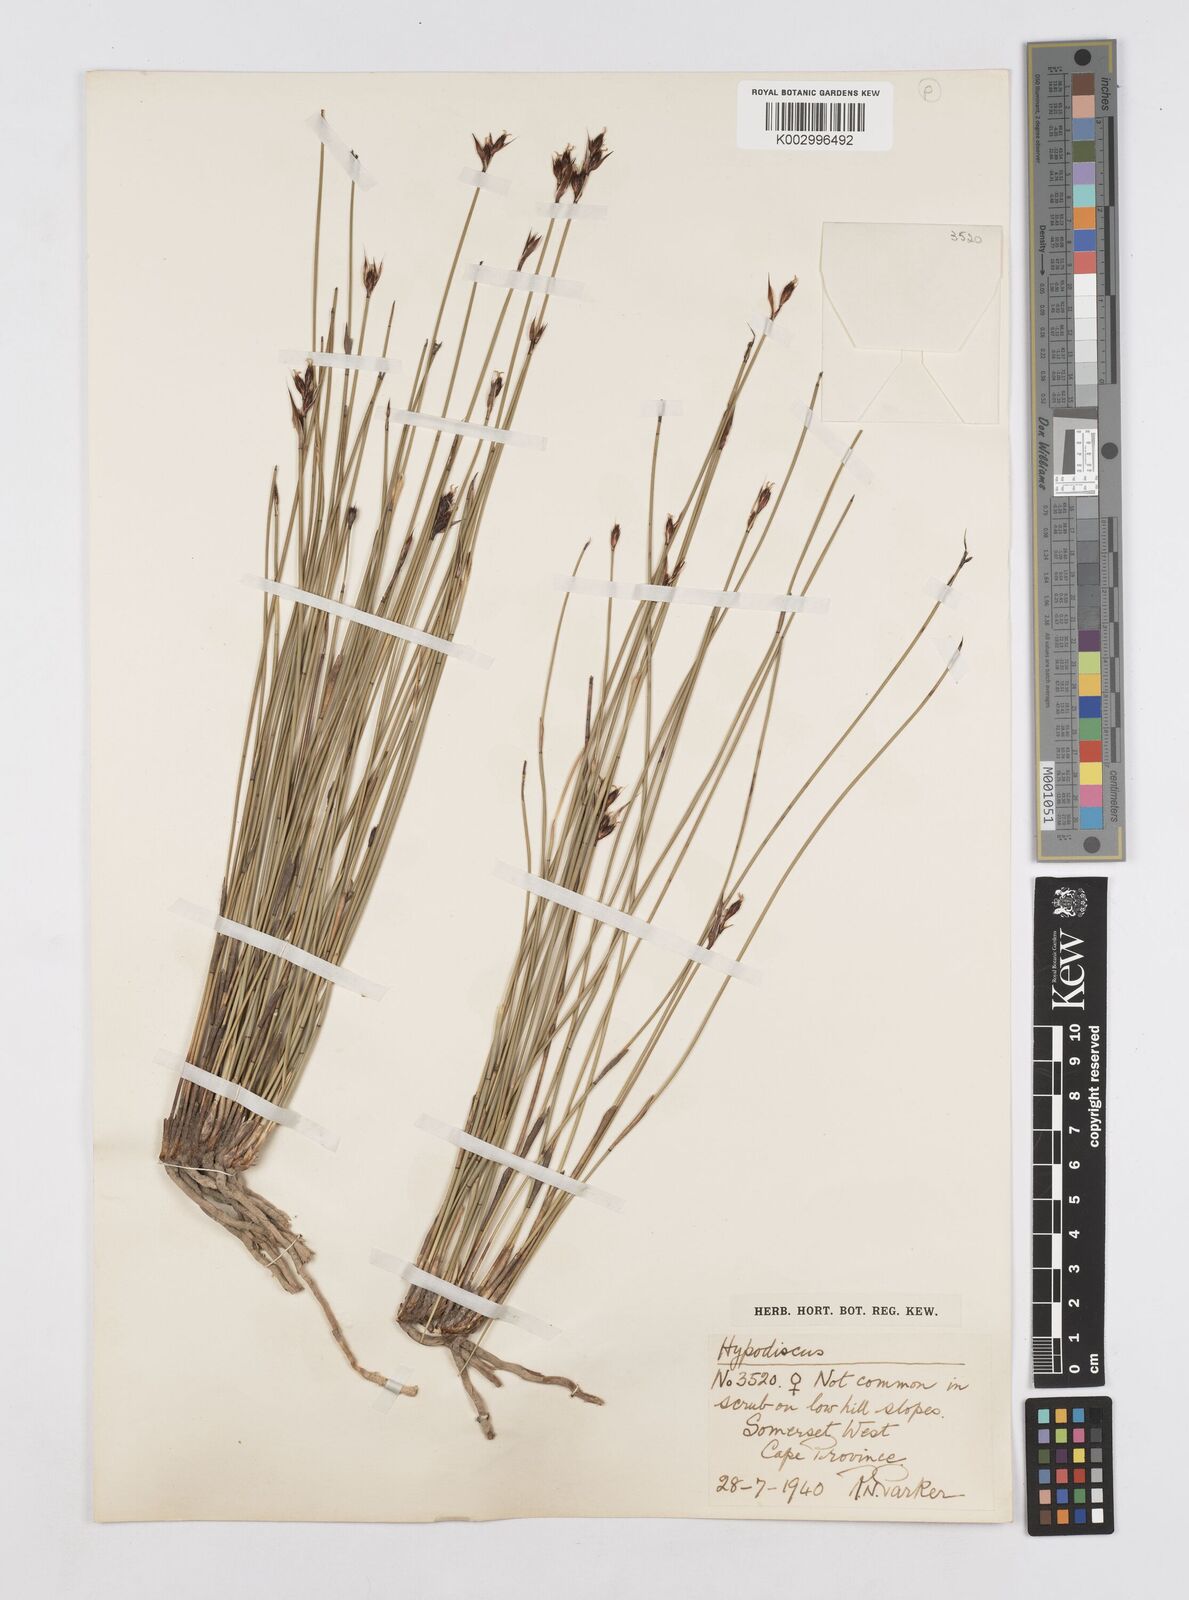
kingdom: Plantae
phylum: Tracheophyta
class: Liliopsida
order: Poales
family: Restionaceae
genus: Hypodiscus
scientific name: Hypodiscus rugosus
